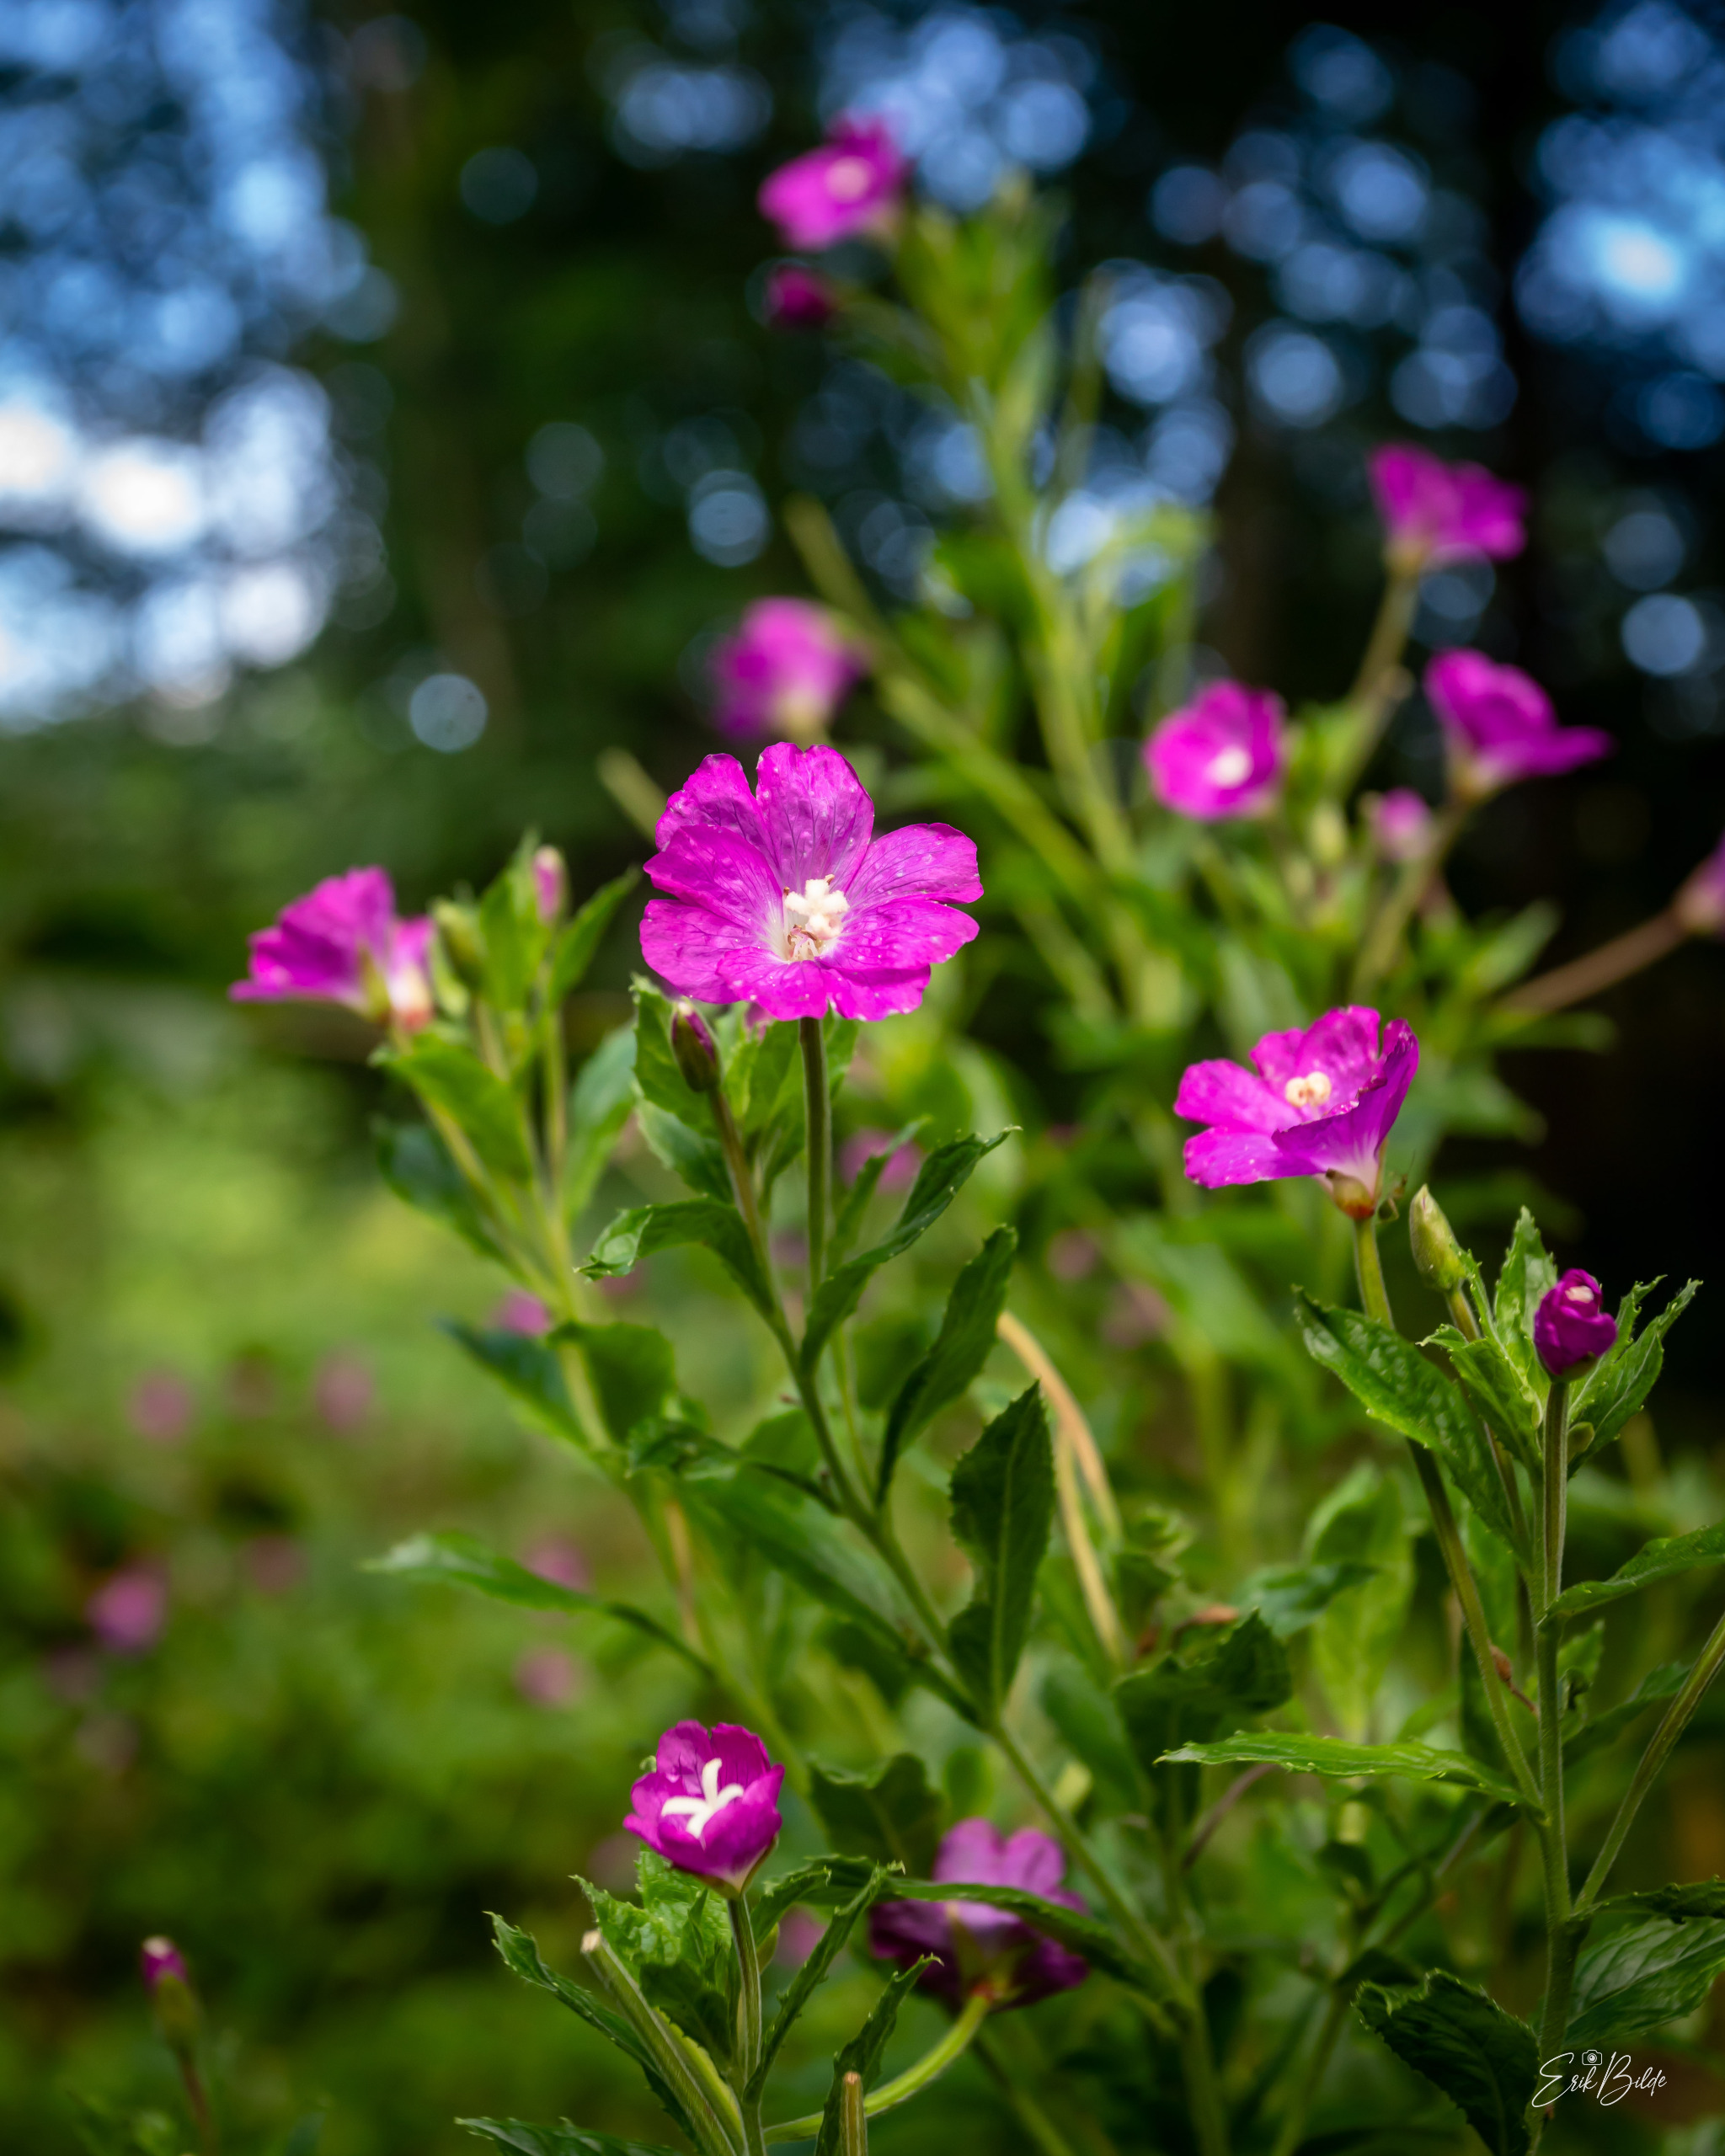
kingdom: Plantae
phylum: Tracheophyta
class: Magnoliopsida
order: Myrtales
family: Onagraceae
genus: Epilobium
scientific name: Epilobium hirsutum
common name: Lådden dueurt
